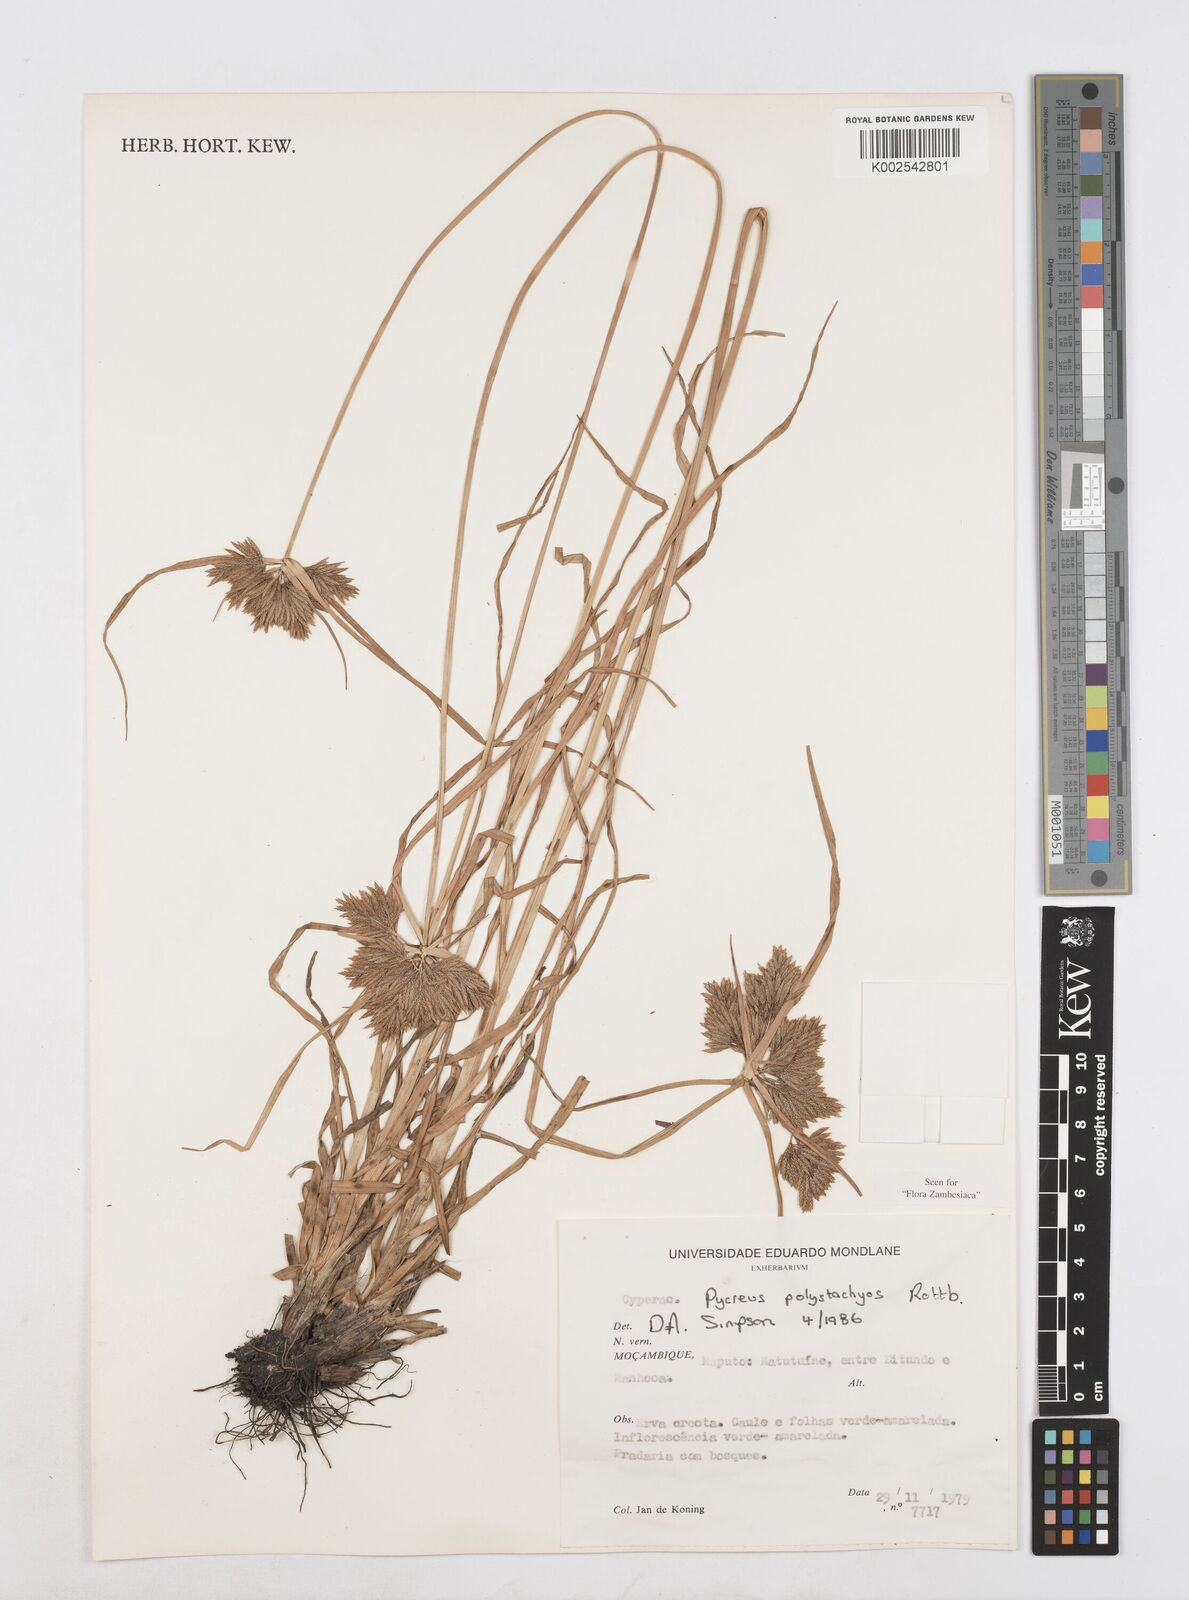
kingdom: Plantae
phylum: Tracheophyta
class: Liliopsida
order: Poales
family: Cyperaceae
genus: Cyperus
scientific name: Cyperus polystachyos
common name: Bunchy flat sedge
